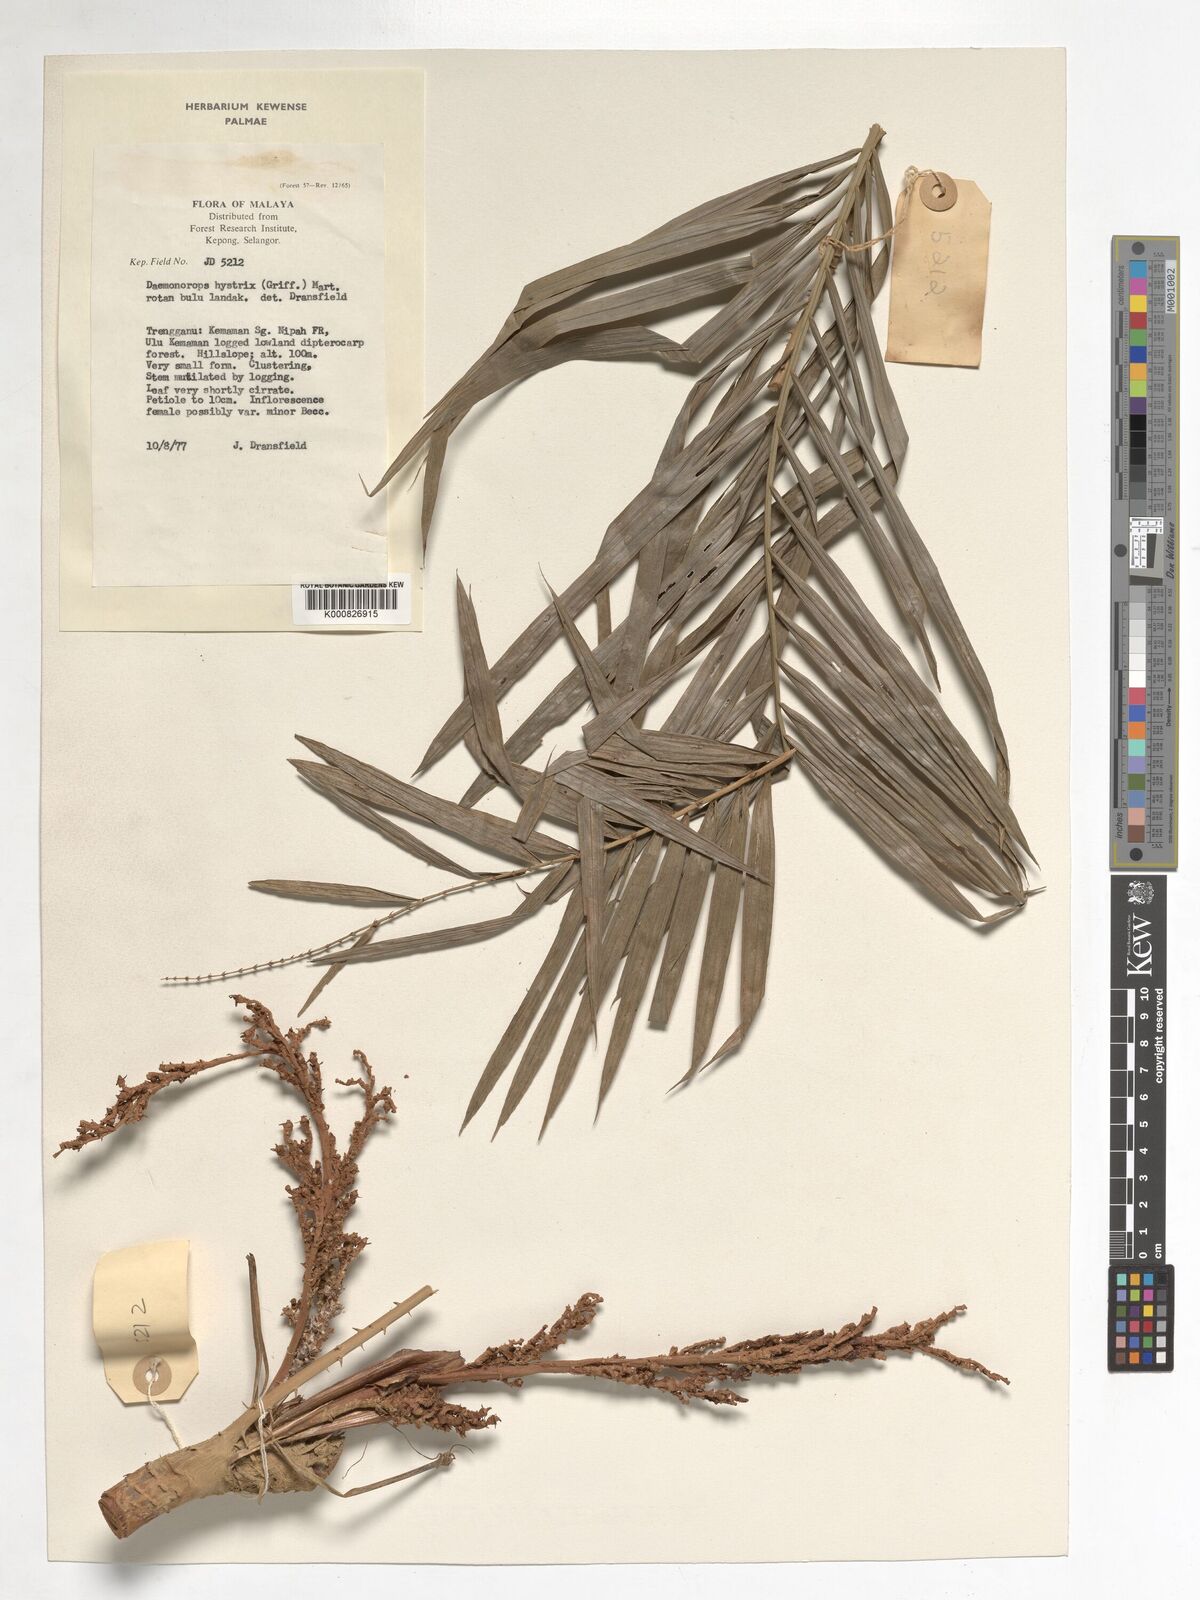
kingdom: Plantae
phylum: Tracheophyta
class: Liliopsida
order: Arecales
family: Arecaceae
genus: Calamus
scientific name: Calamus hirsutus
